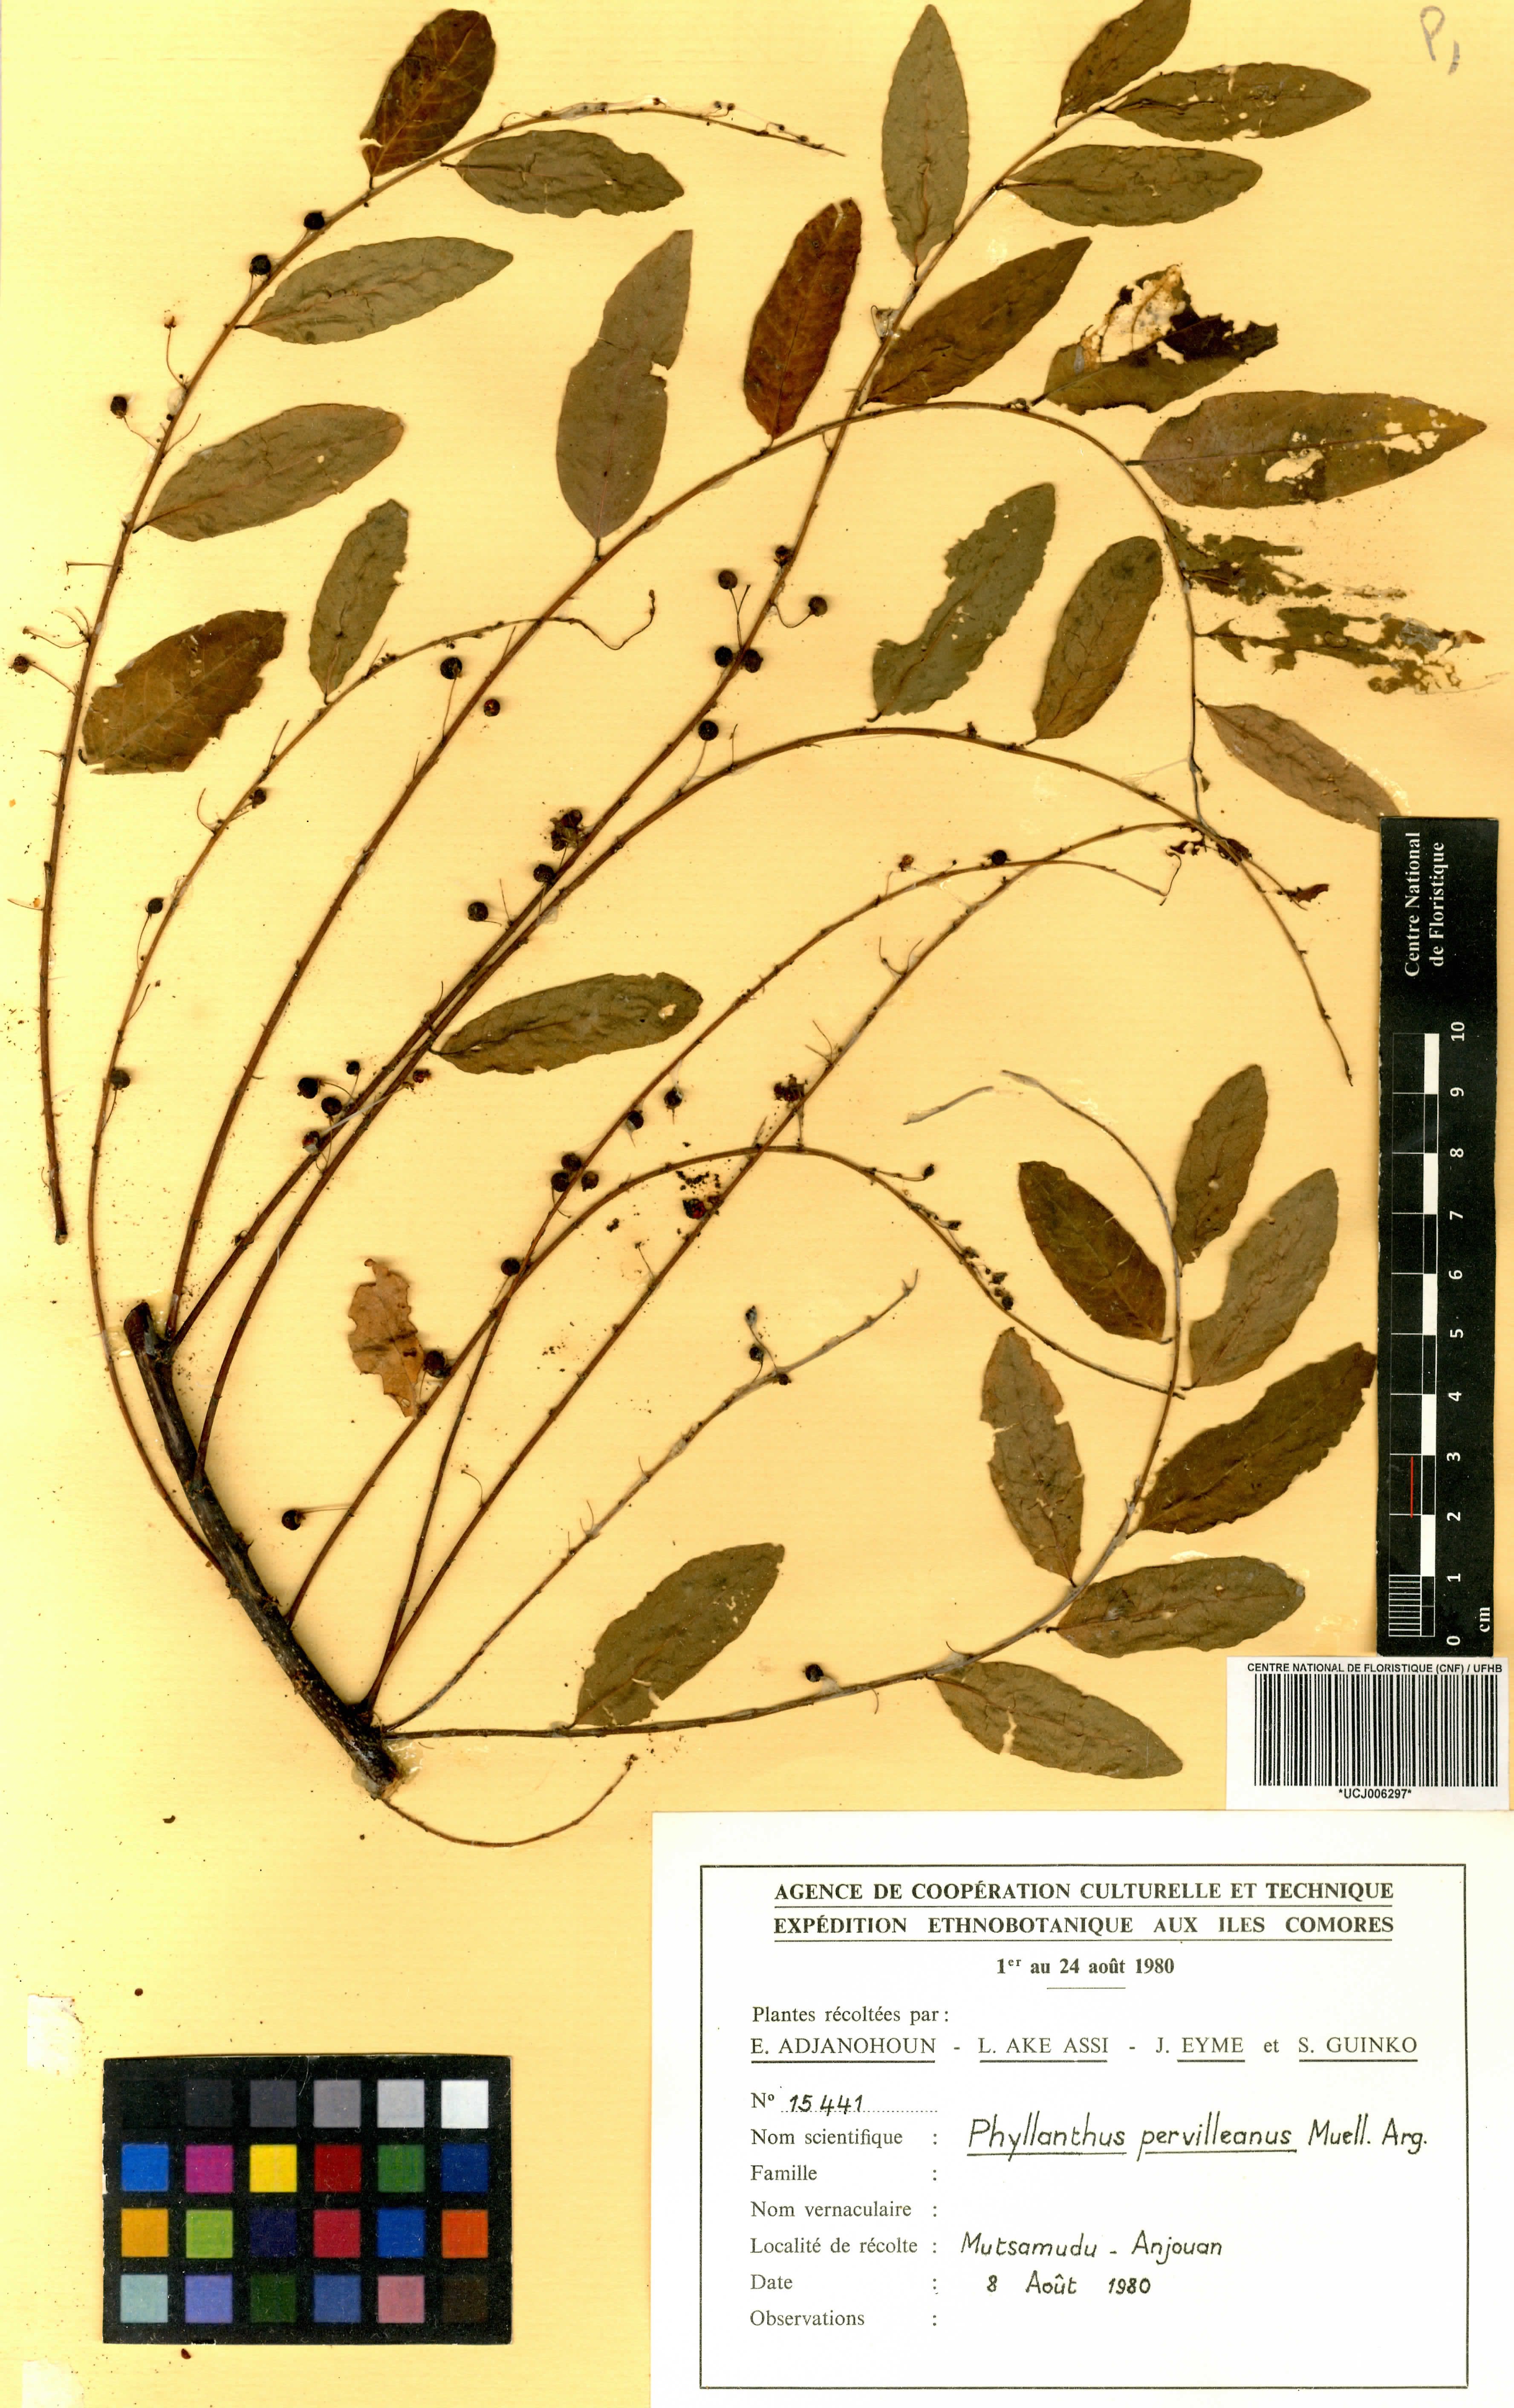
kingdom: Plantae
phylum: Tracheophyta
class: Magnoliopsida
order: Malpighiales
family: Phyllanthaceae
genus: Phyllanthus
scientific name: Phyllanthus pervilleanus
